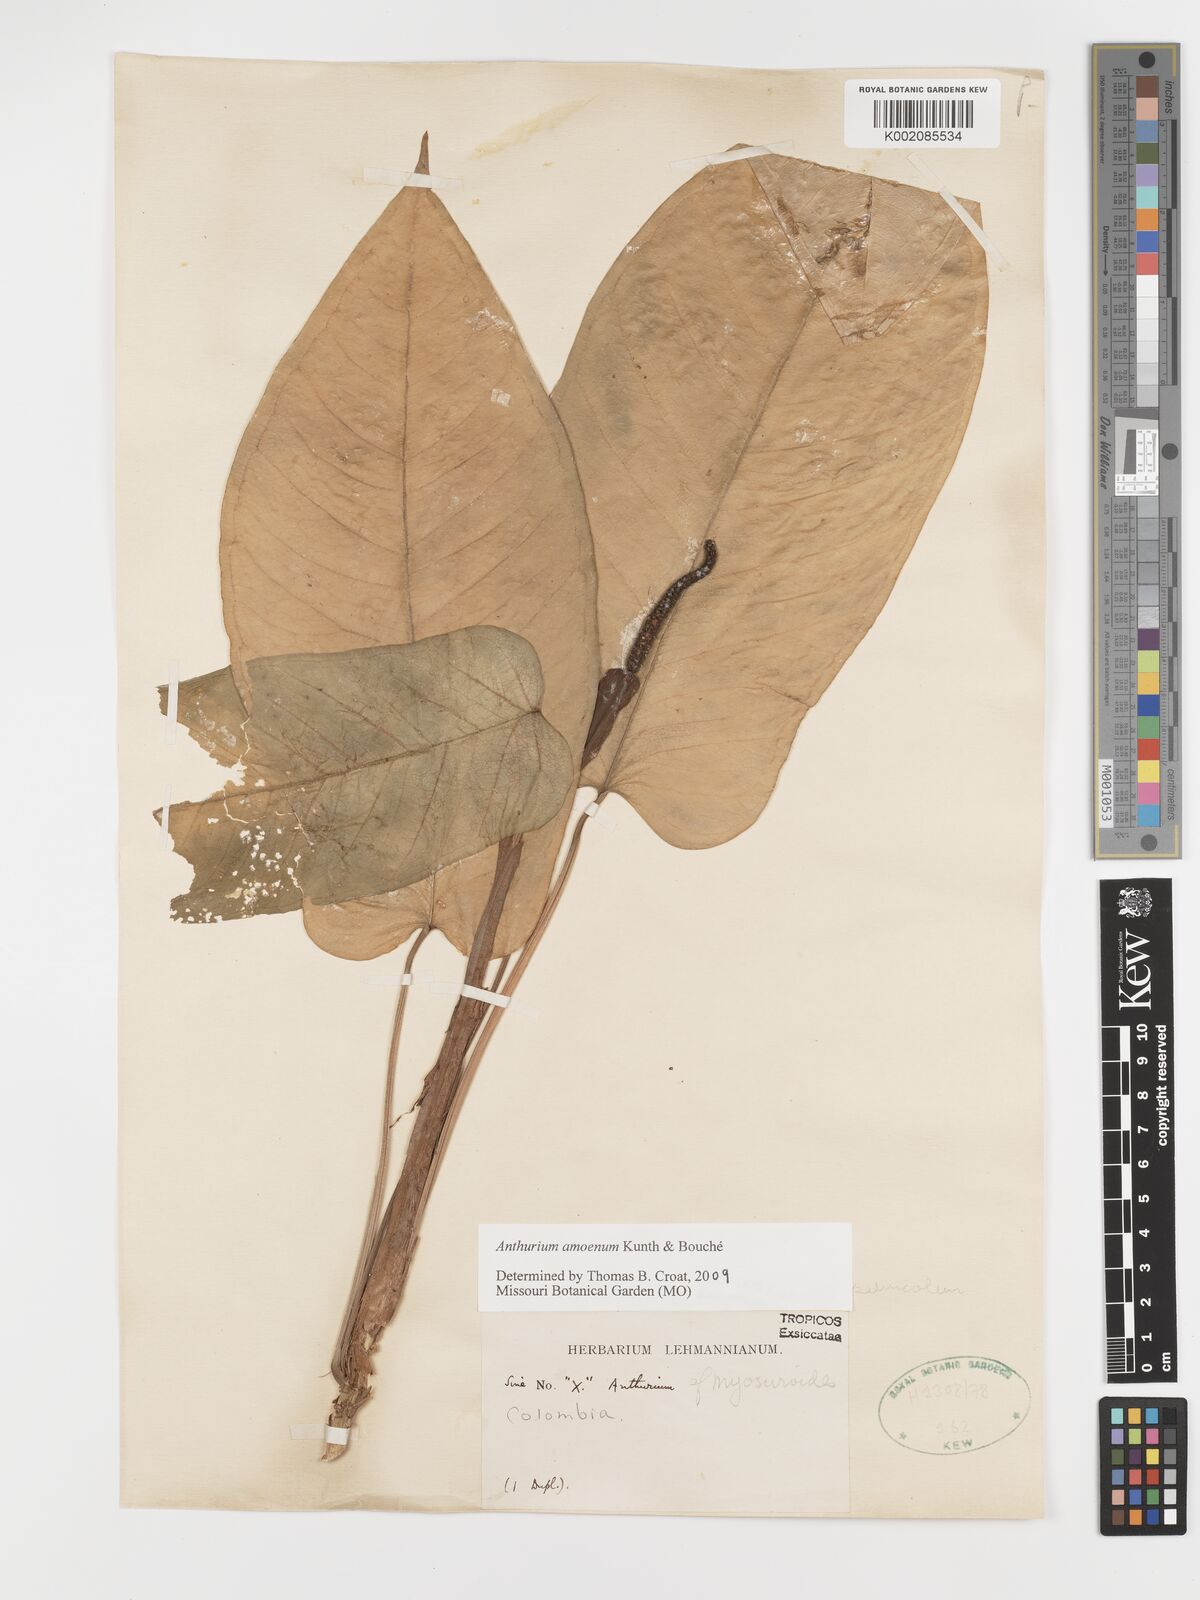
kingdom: Plantae
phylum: Tracheophyta
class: Liliopsida
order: Alismatales
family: Araceae
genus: Anthurium
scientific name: Anthurium amoenum
